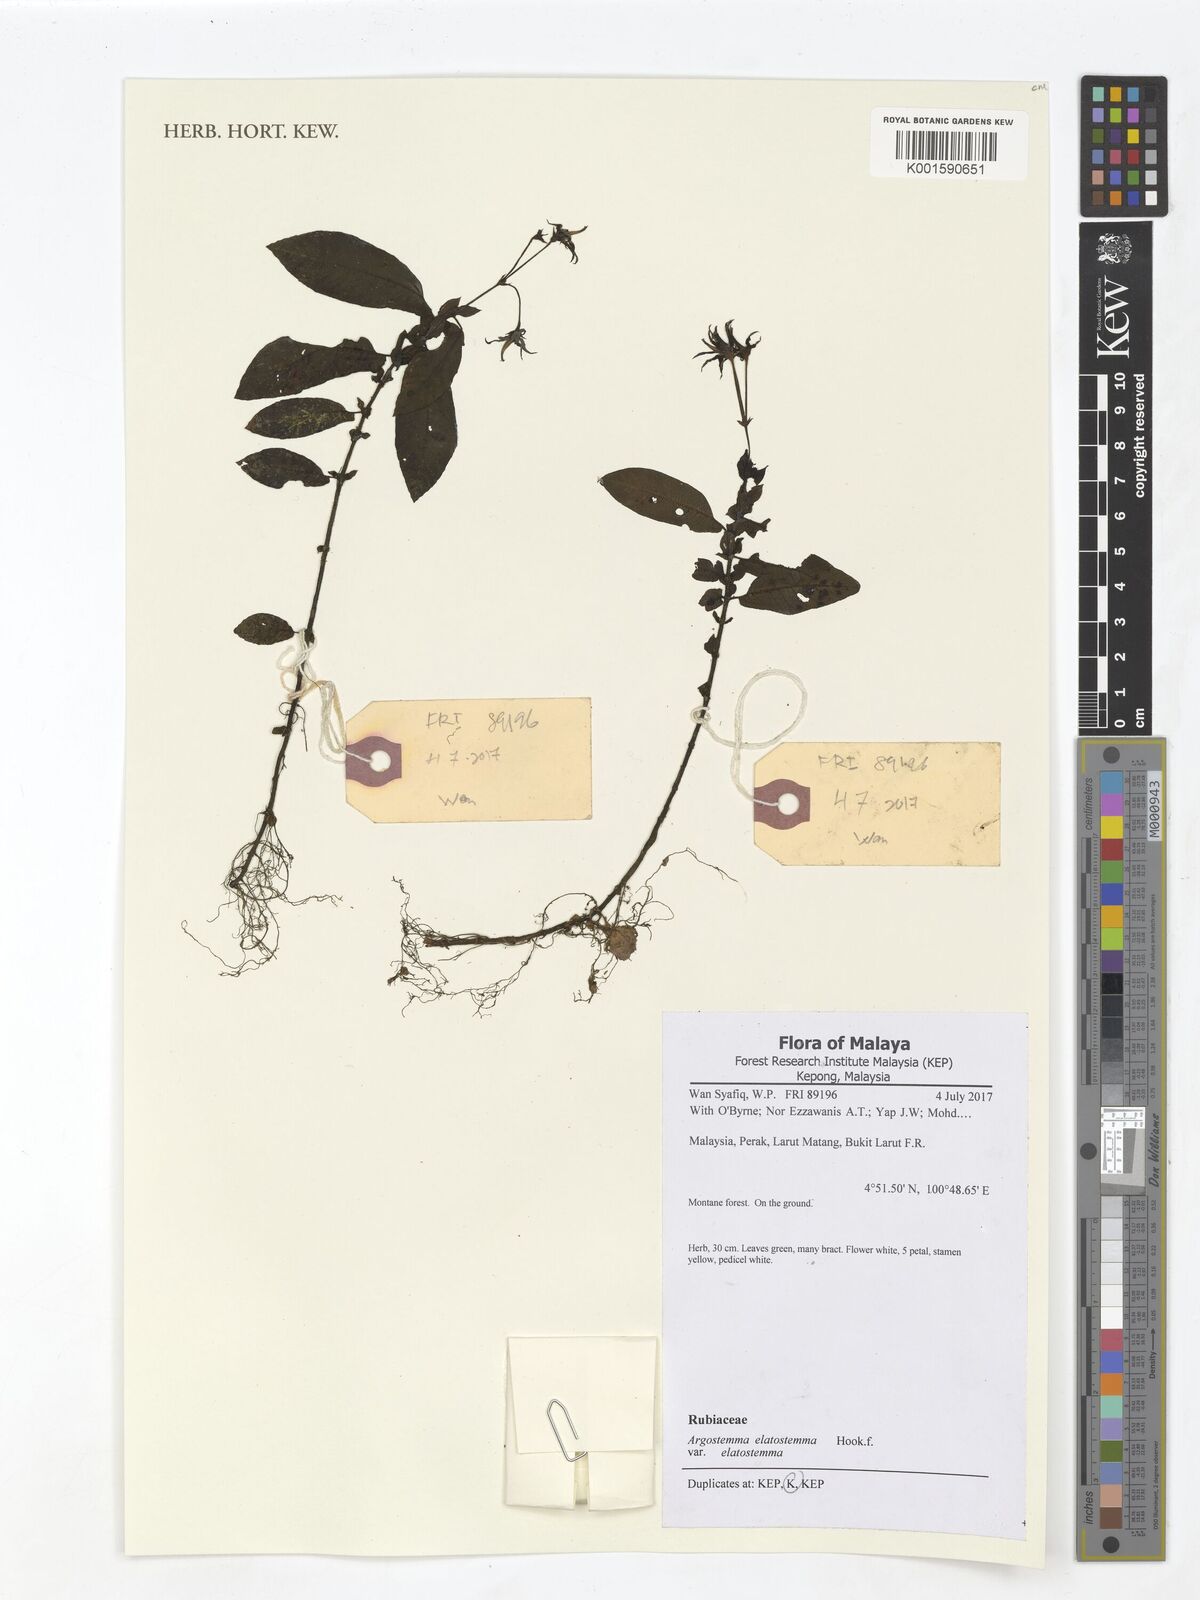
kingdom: Plantae
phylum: Tracheophyta
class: Magnoliopsida
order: Gentianales
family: Rubiaceae
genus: Argostemma
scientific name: Argostemma elatostemma
